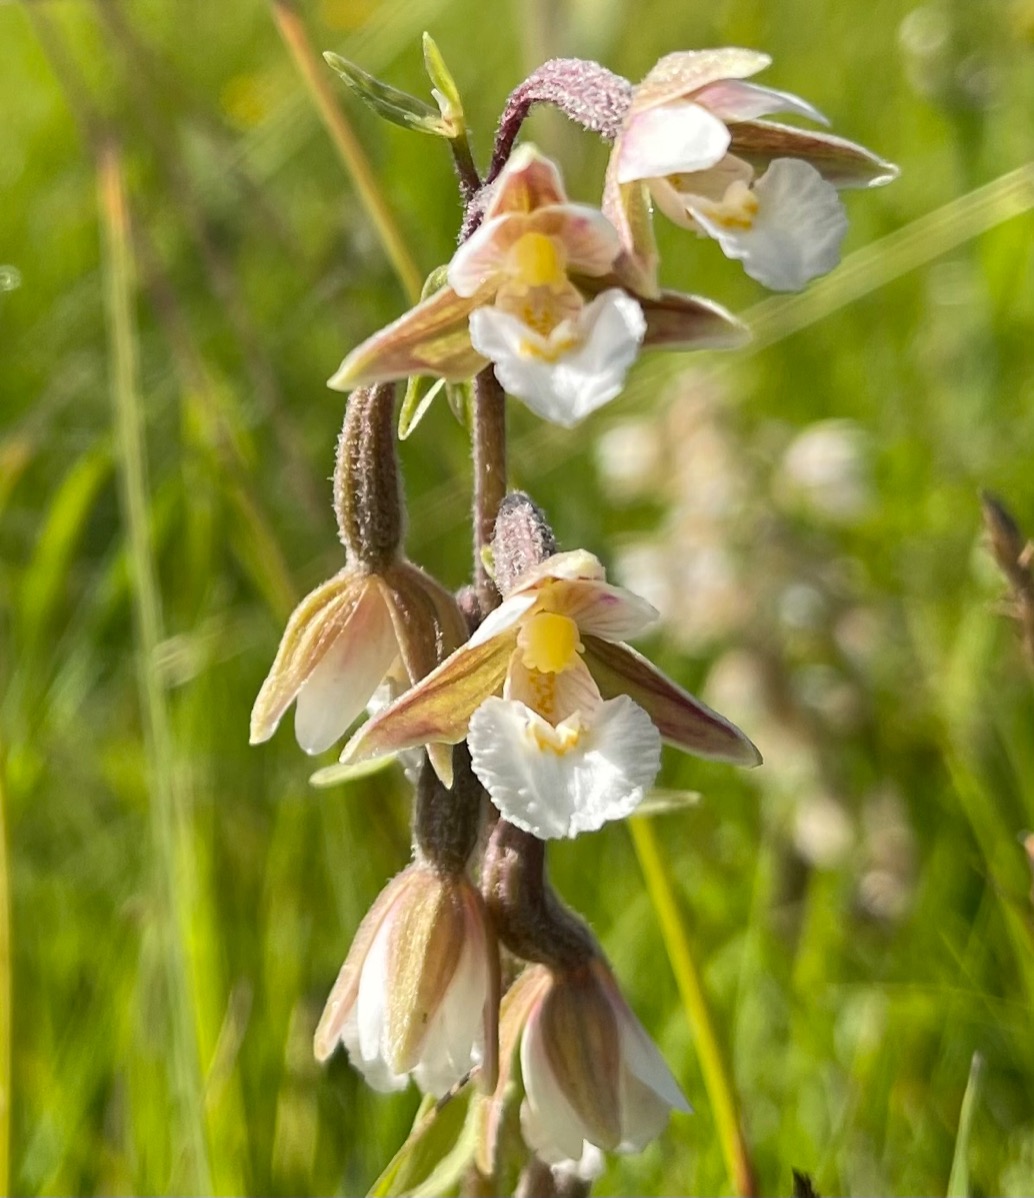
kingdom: Plantae
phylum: Tracheophyta
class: Liliopsida
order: Asparagales
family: Orchidaceae
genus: Epipactis
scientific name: Epipactis palustris
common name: Sump-hullæbe
